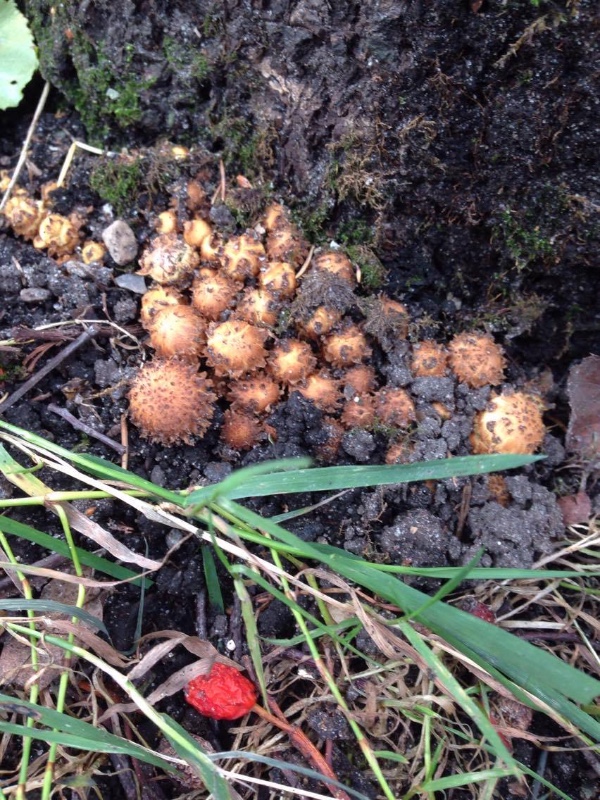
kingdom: Fungi
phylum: Basidiomycota
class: Agaricomycetes
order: Agaricales
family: Strophariaceae
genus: Pholiota
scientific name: Pholiota squarrosa
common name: krumskællet skælhat
